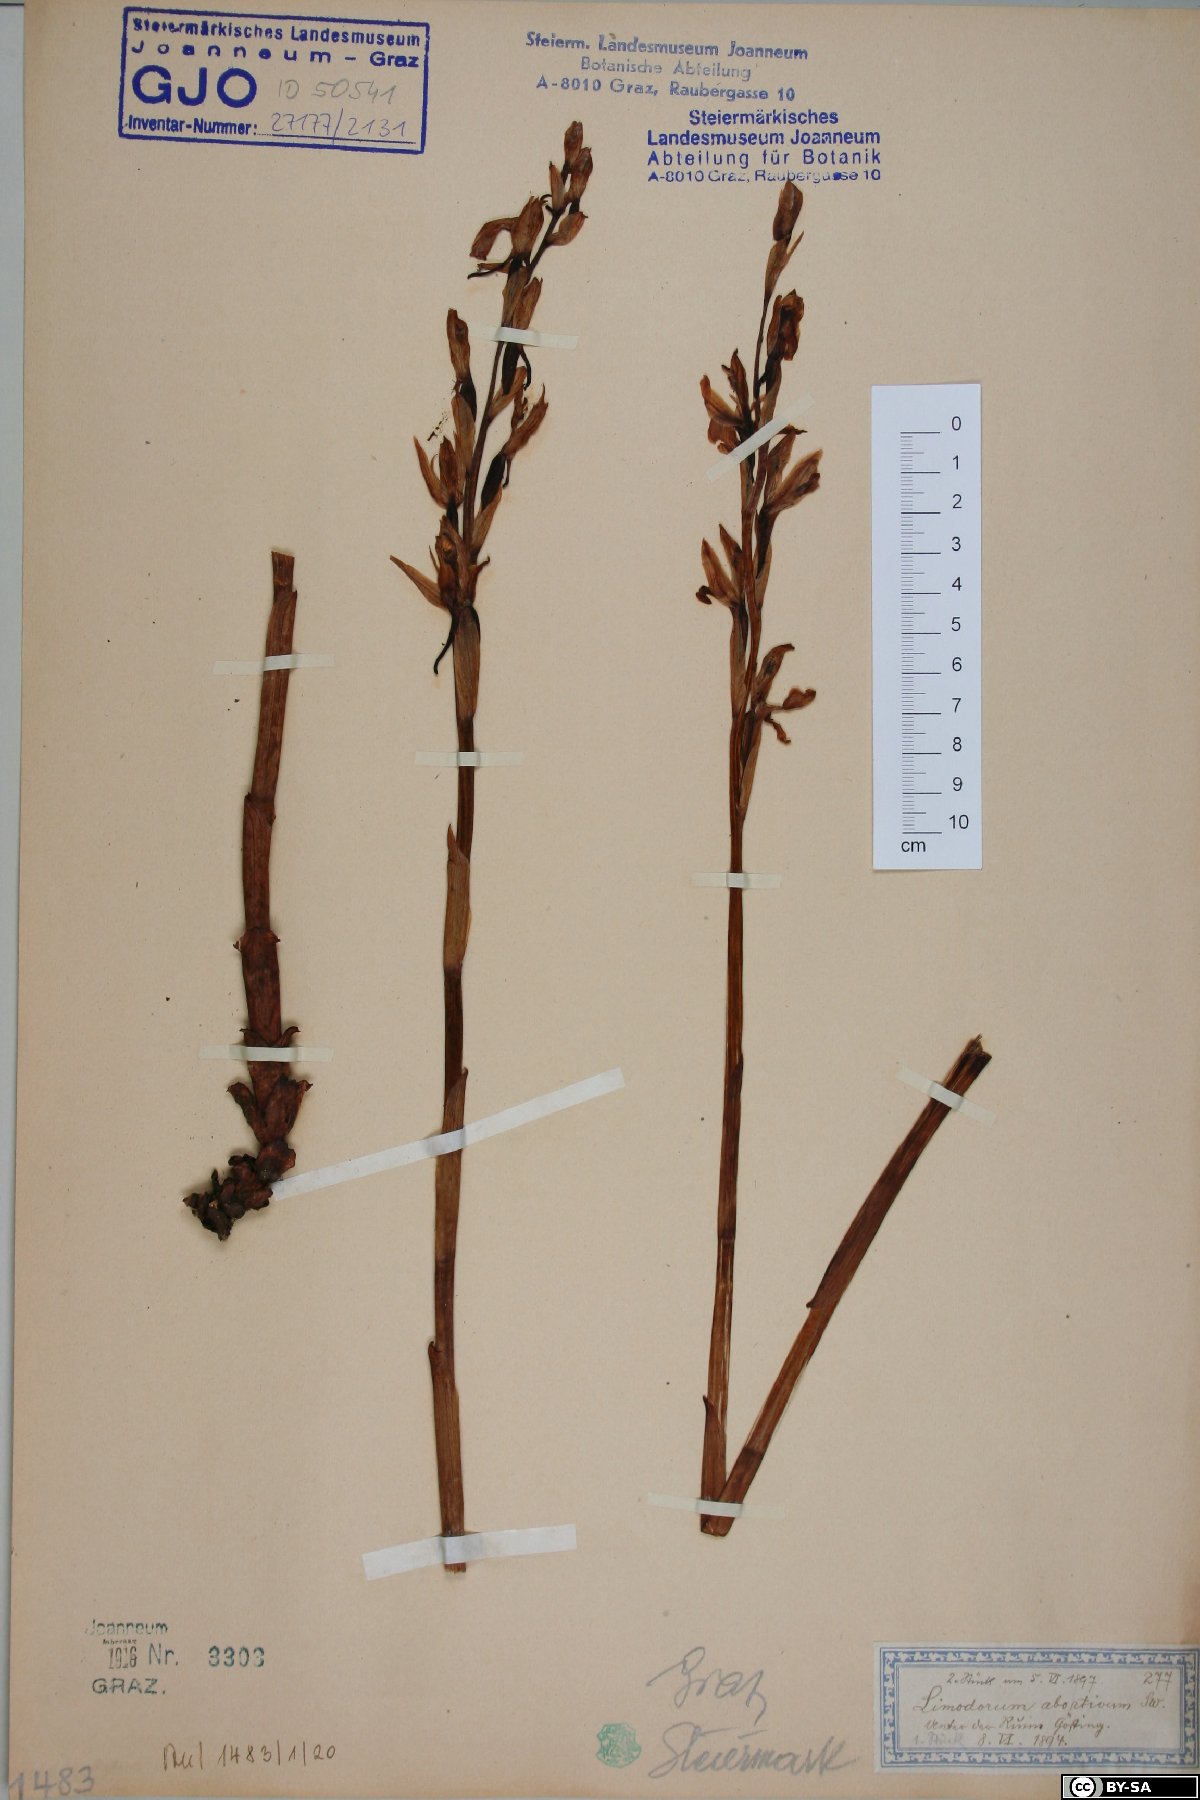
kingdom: Plantae
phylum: Tracheophyta
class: Liliopsida
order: Asparagales
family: Orchidaceae
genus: Limodorum
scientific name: Limodorum abortivum
